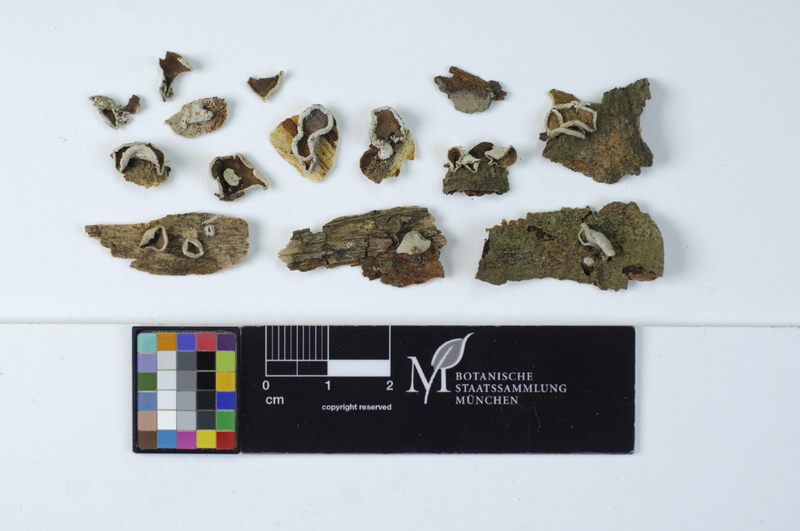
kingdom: Fungi
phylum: Basidiomycota
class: Agaricomycetes
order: Agaricales
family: Schizophyllaceae
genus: Schizophyllum
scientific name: Schizophyllum amplum
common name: Poplar bells
